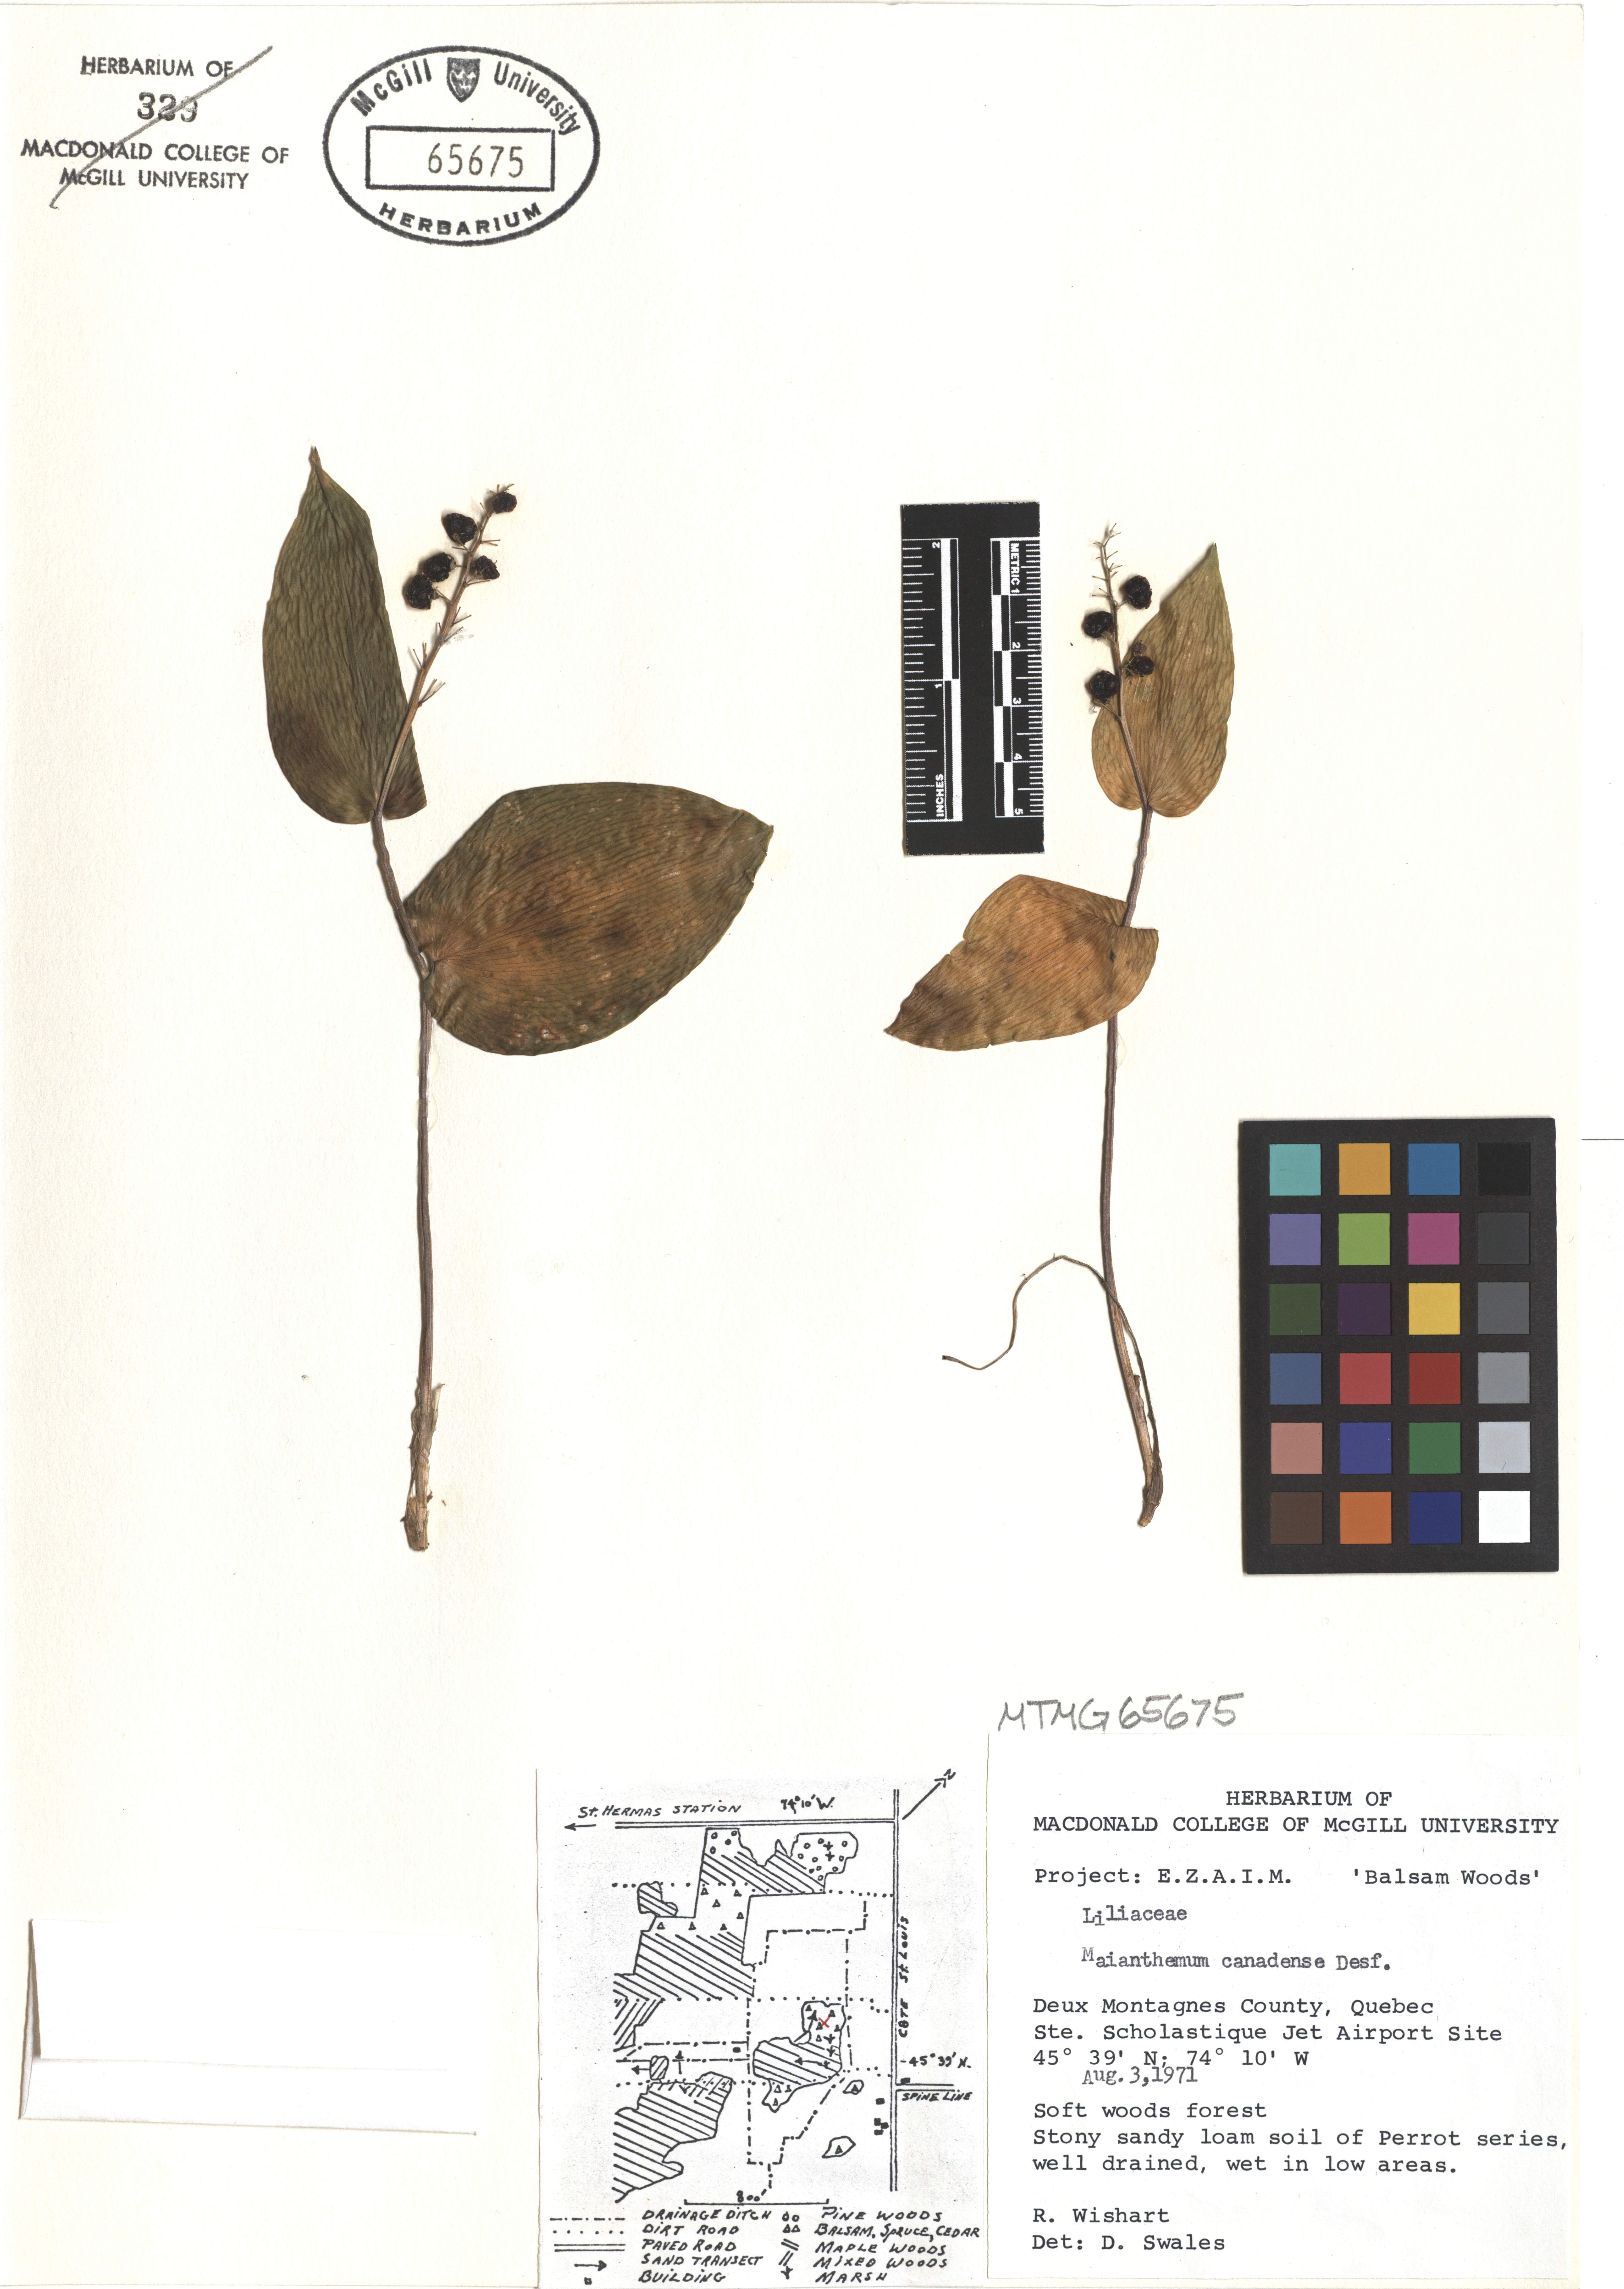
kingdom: Plantae
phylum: Tracheophyta
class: Liliopsida
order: Asparagales
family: Asparagaceae
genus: Maianthemum
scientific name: Maianthemum canadense
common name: False lily-of-the-valley
